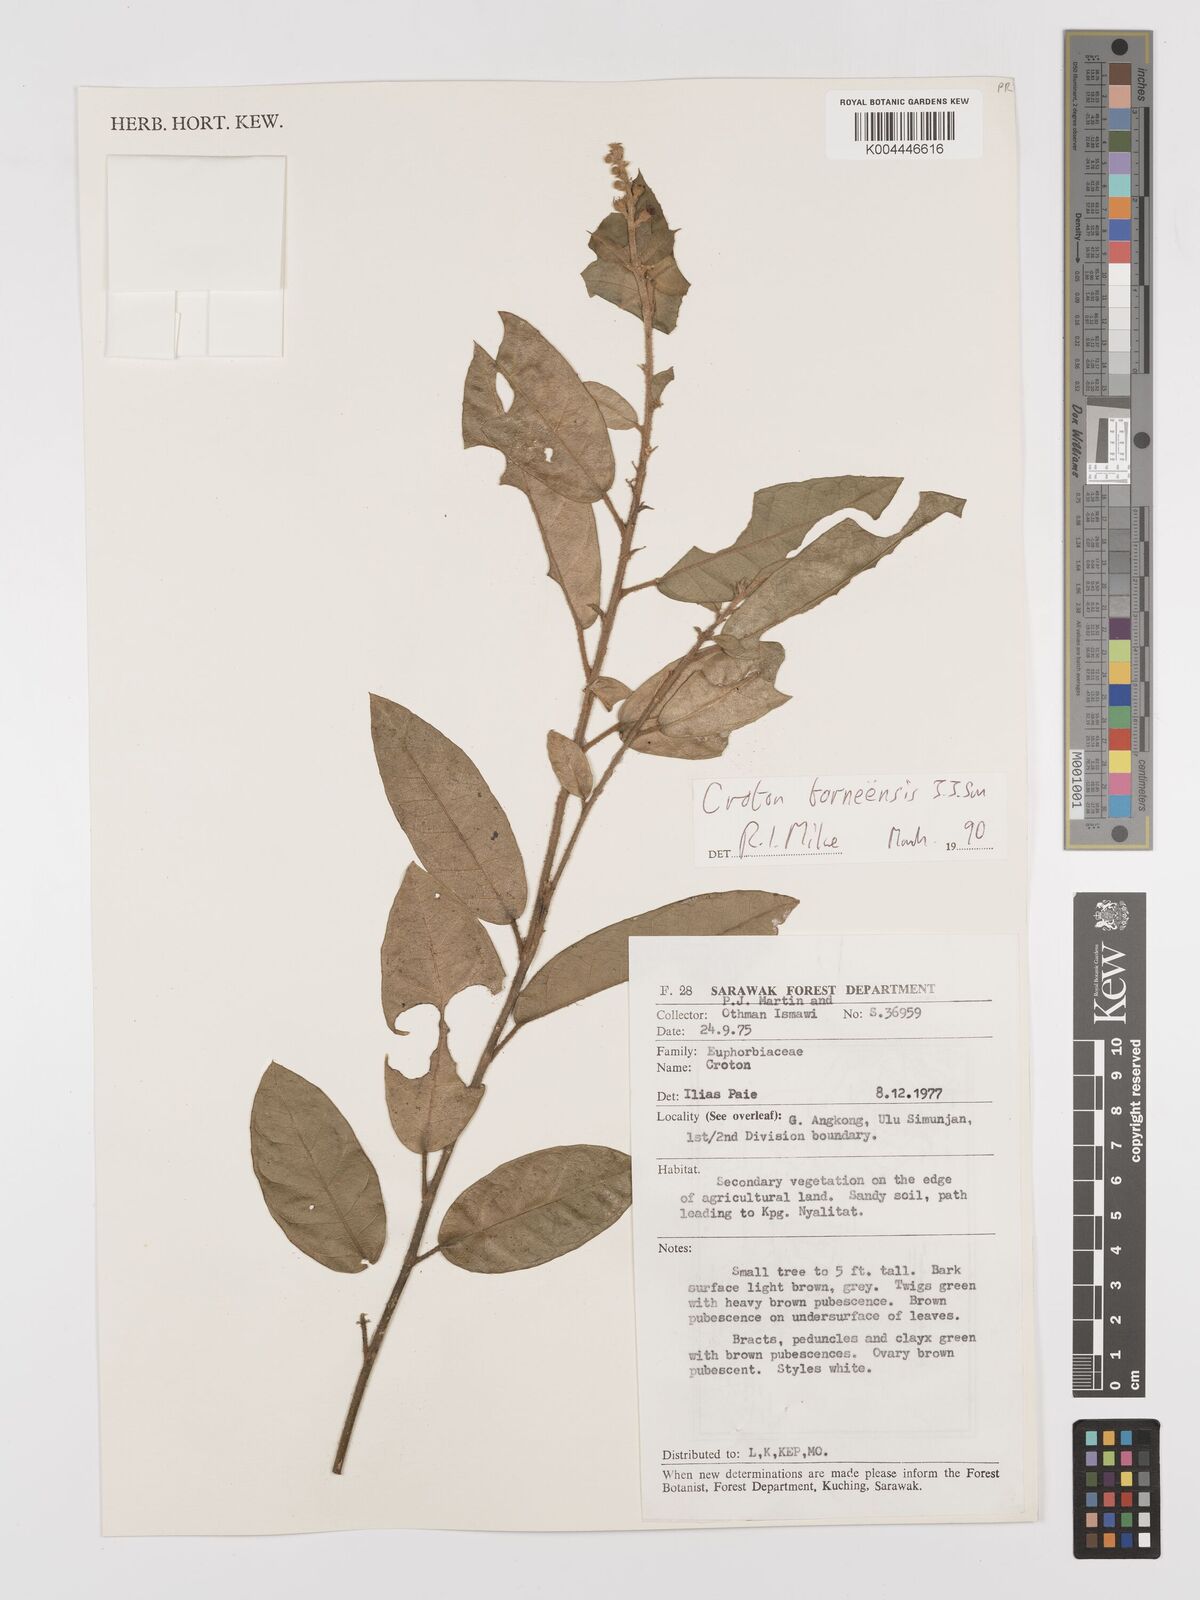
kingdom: Plantae
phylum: Tracheophyta
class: Magnoliopsida
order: Malpighiales
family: Euphorbiaceae
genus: Croton
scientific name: Croton borneensis
